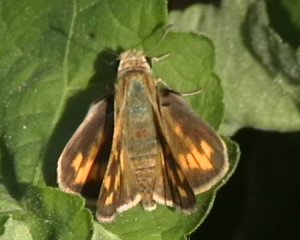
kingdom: Animalia
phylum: Arthropoda
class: Insecta
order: Lepidoptera
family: Hesperiidae
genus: Hylephila
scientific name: Hylephila phyleus
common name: Fiery Skipper
